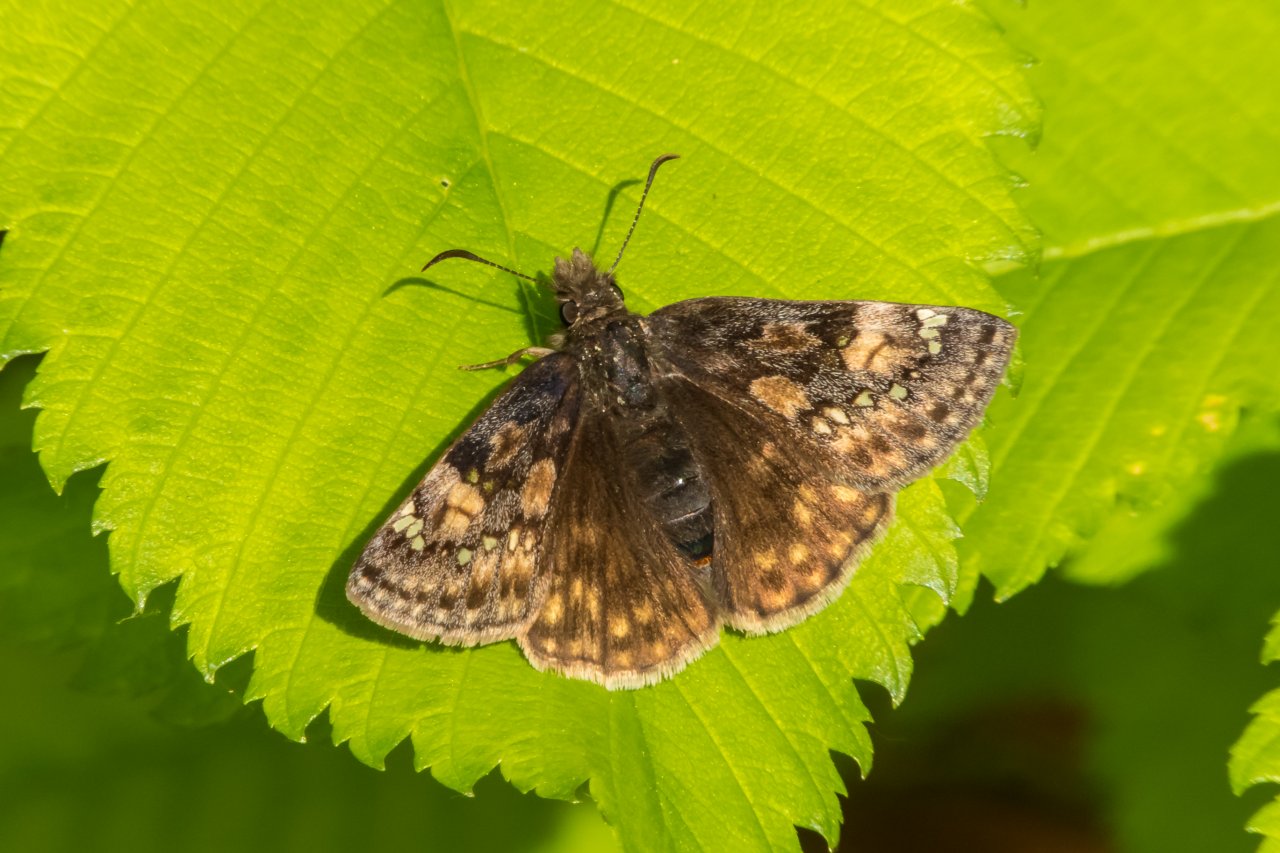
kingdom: Animalia
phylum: Arthropoda
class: Insecta
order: Lepidoptera
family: Hesperiidae
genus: Gesta
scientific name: Gesta
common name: Juvenal's Duskywing
